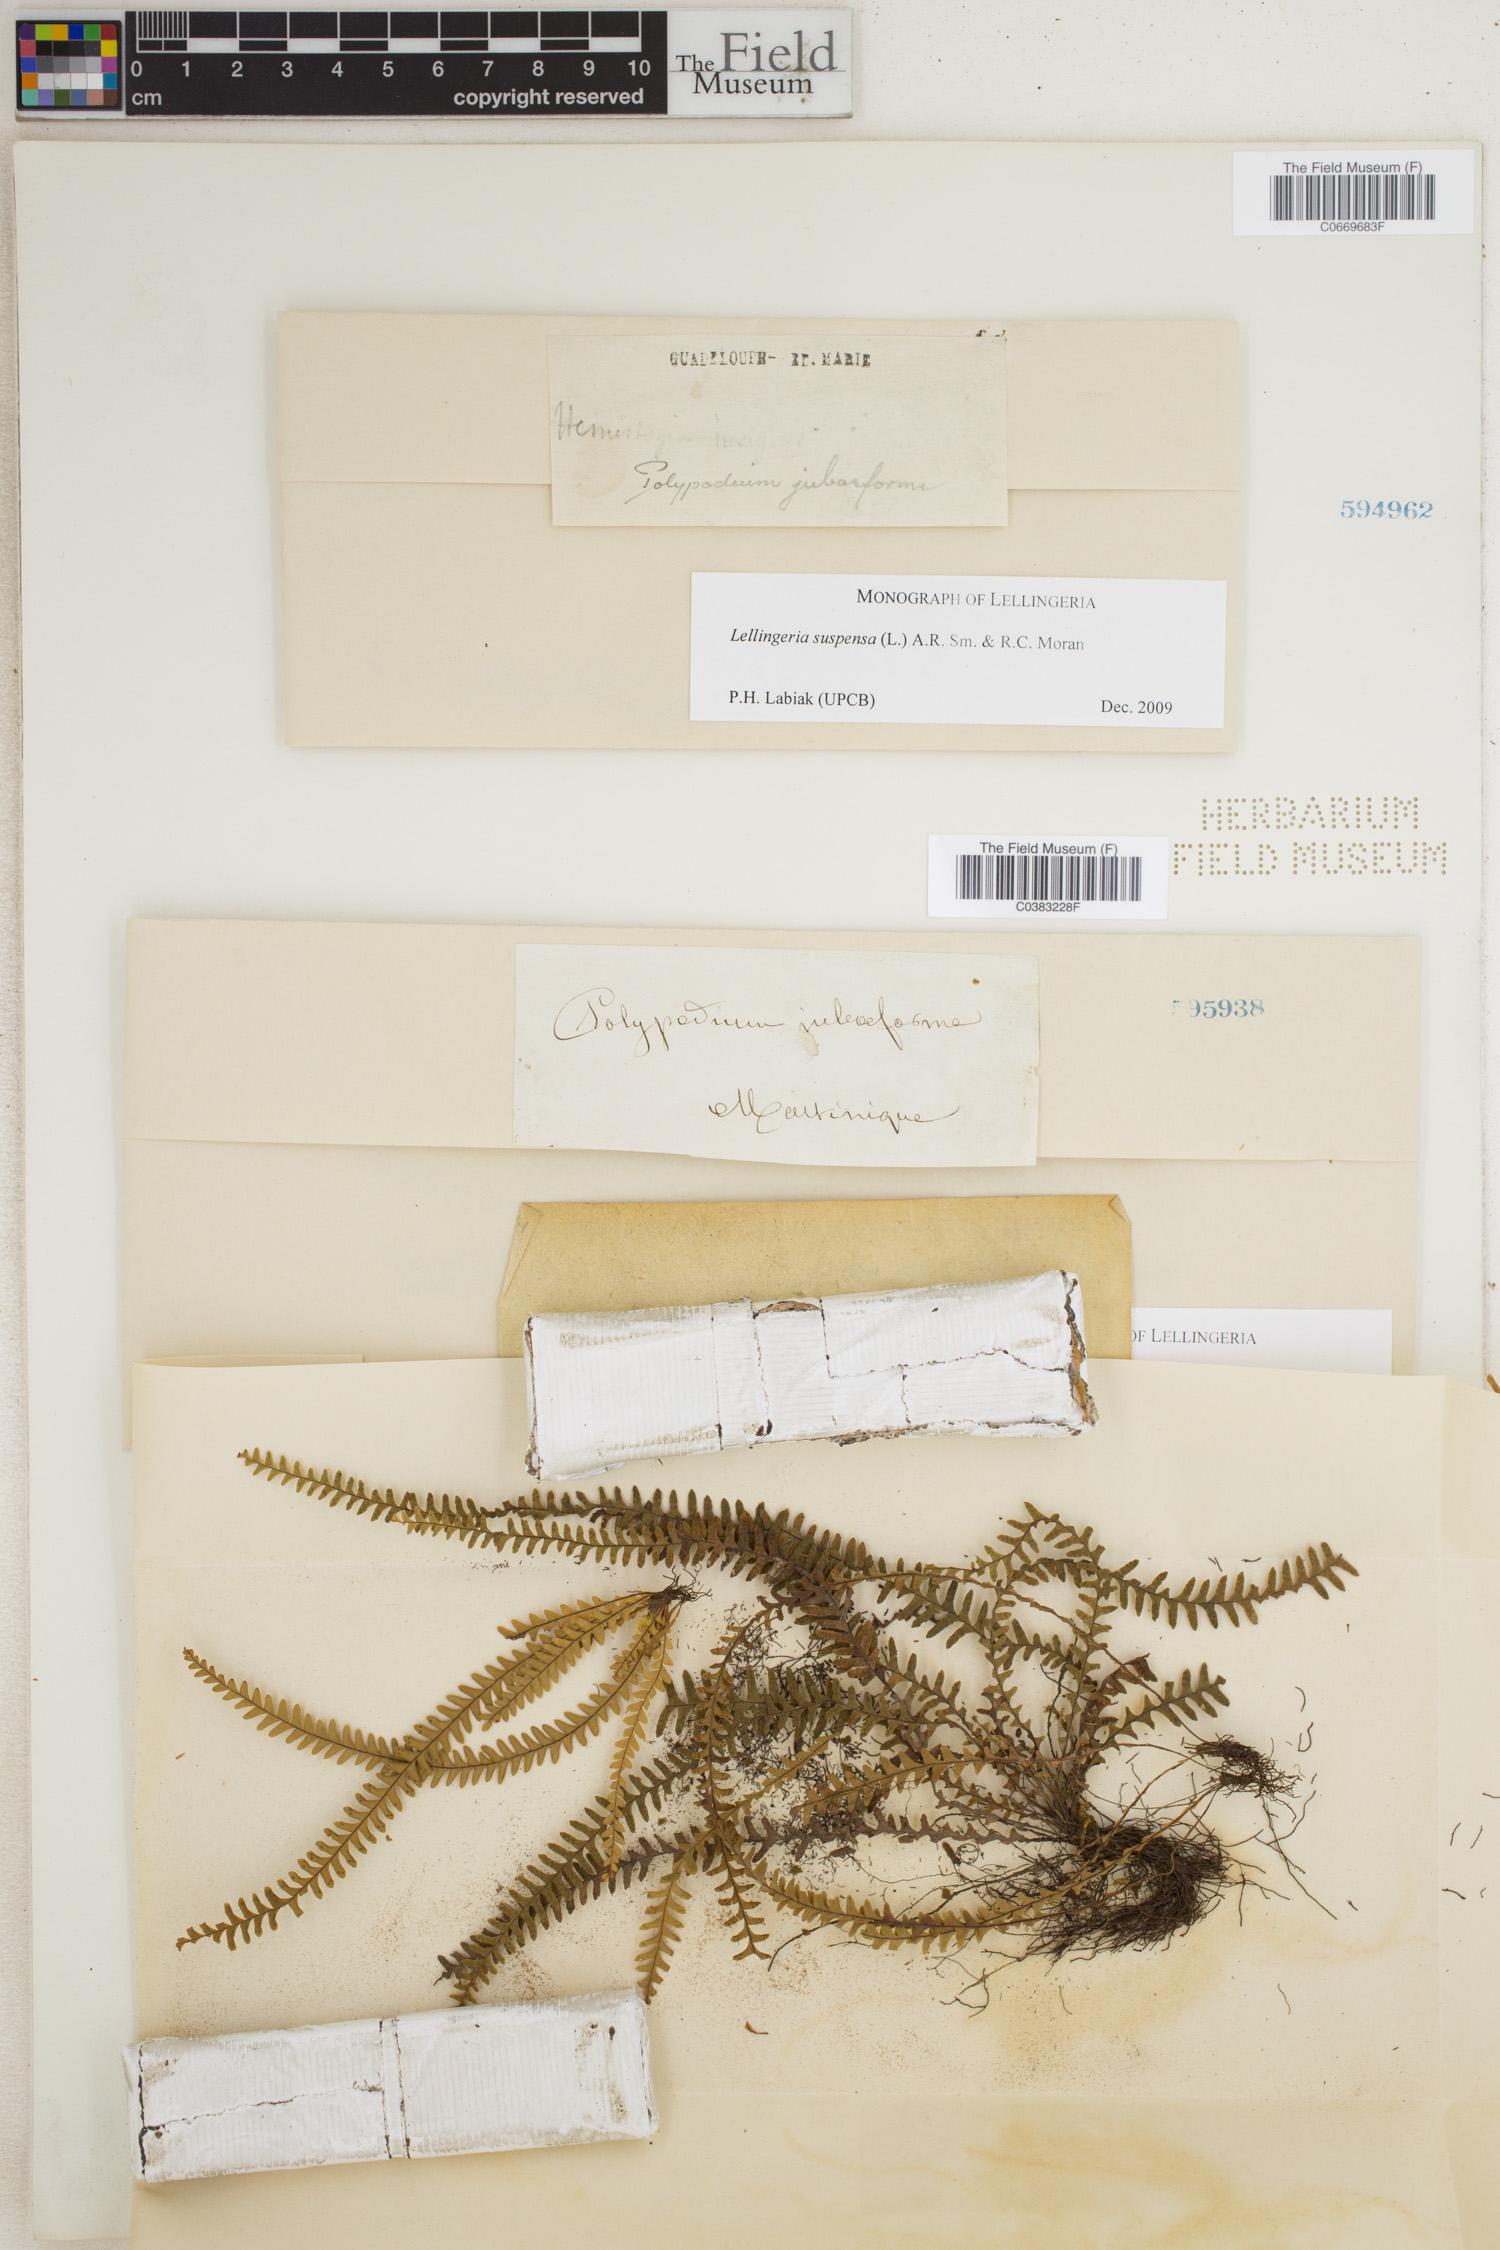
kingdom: Plantae
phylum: Tracheophyta
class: Polypodiopsida
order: Polypodiales
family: Polypodiaceae
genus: Lellingeria
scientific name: Lellingeria suspensa
